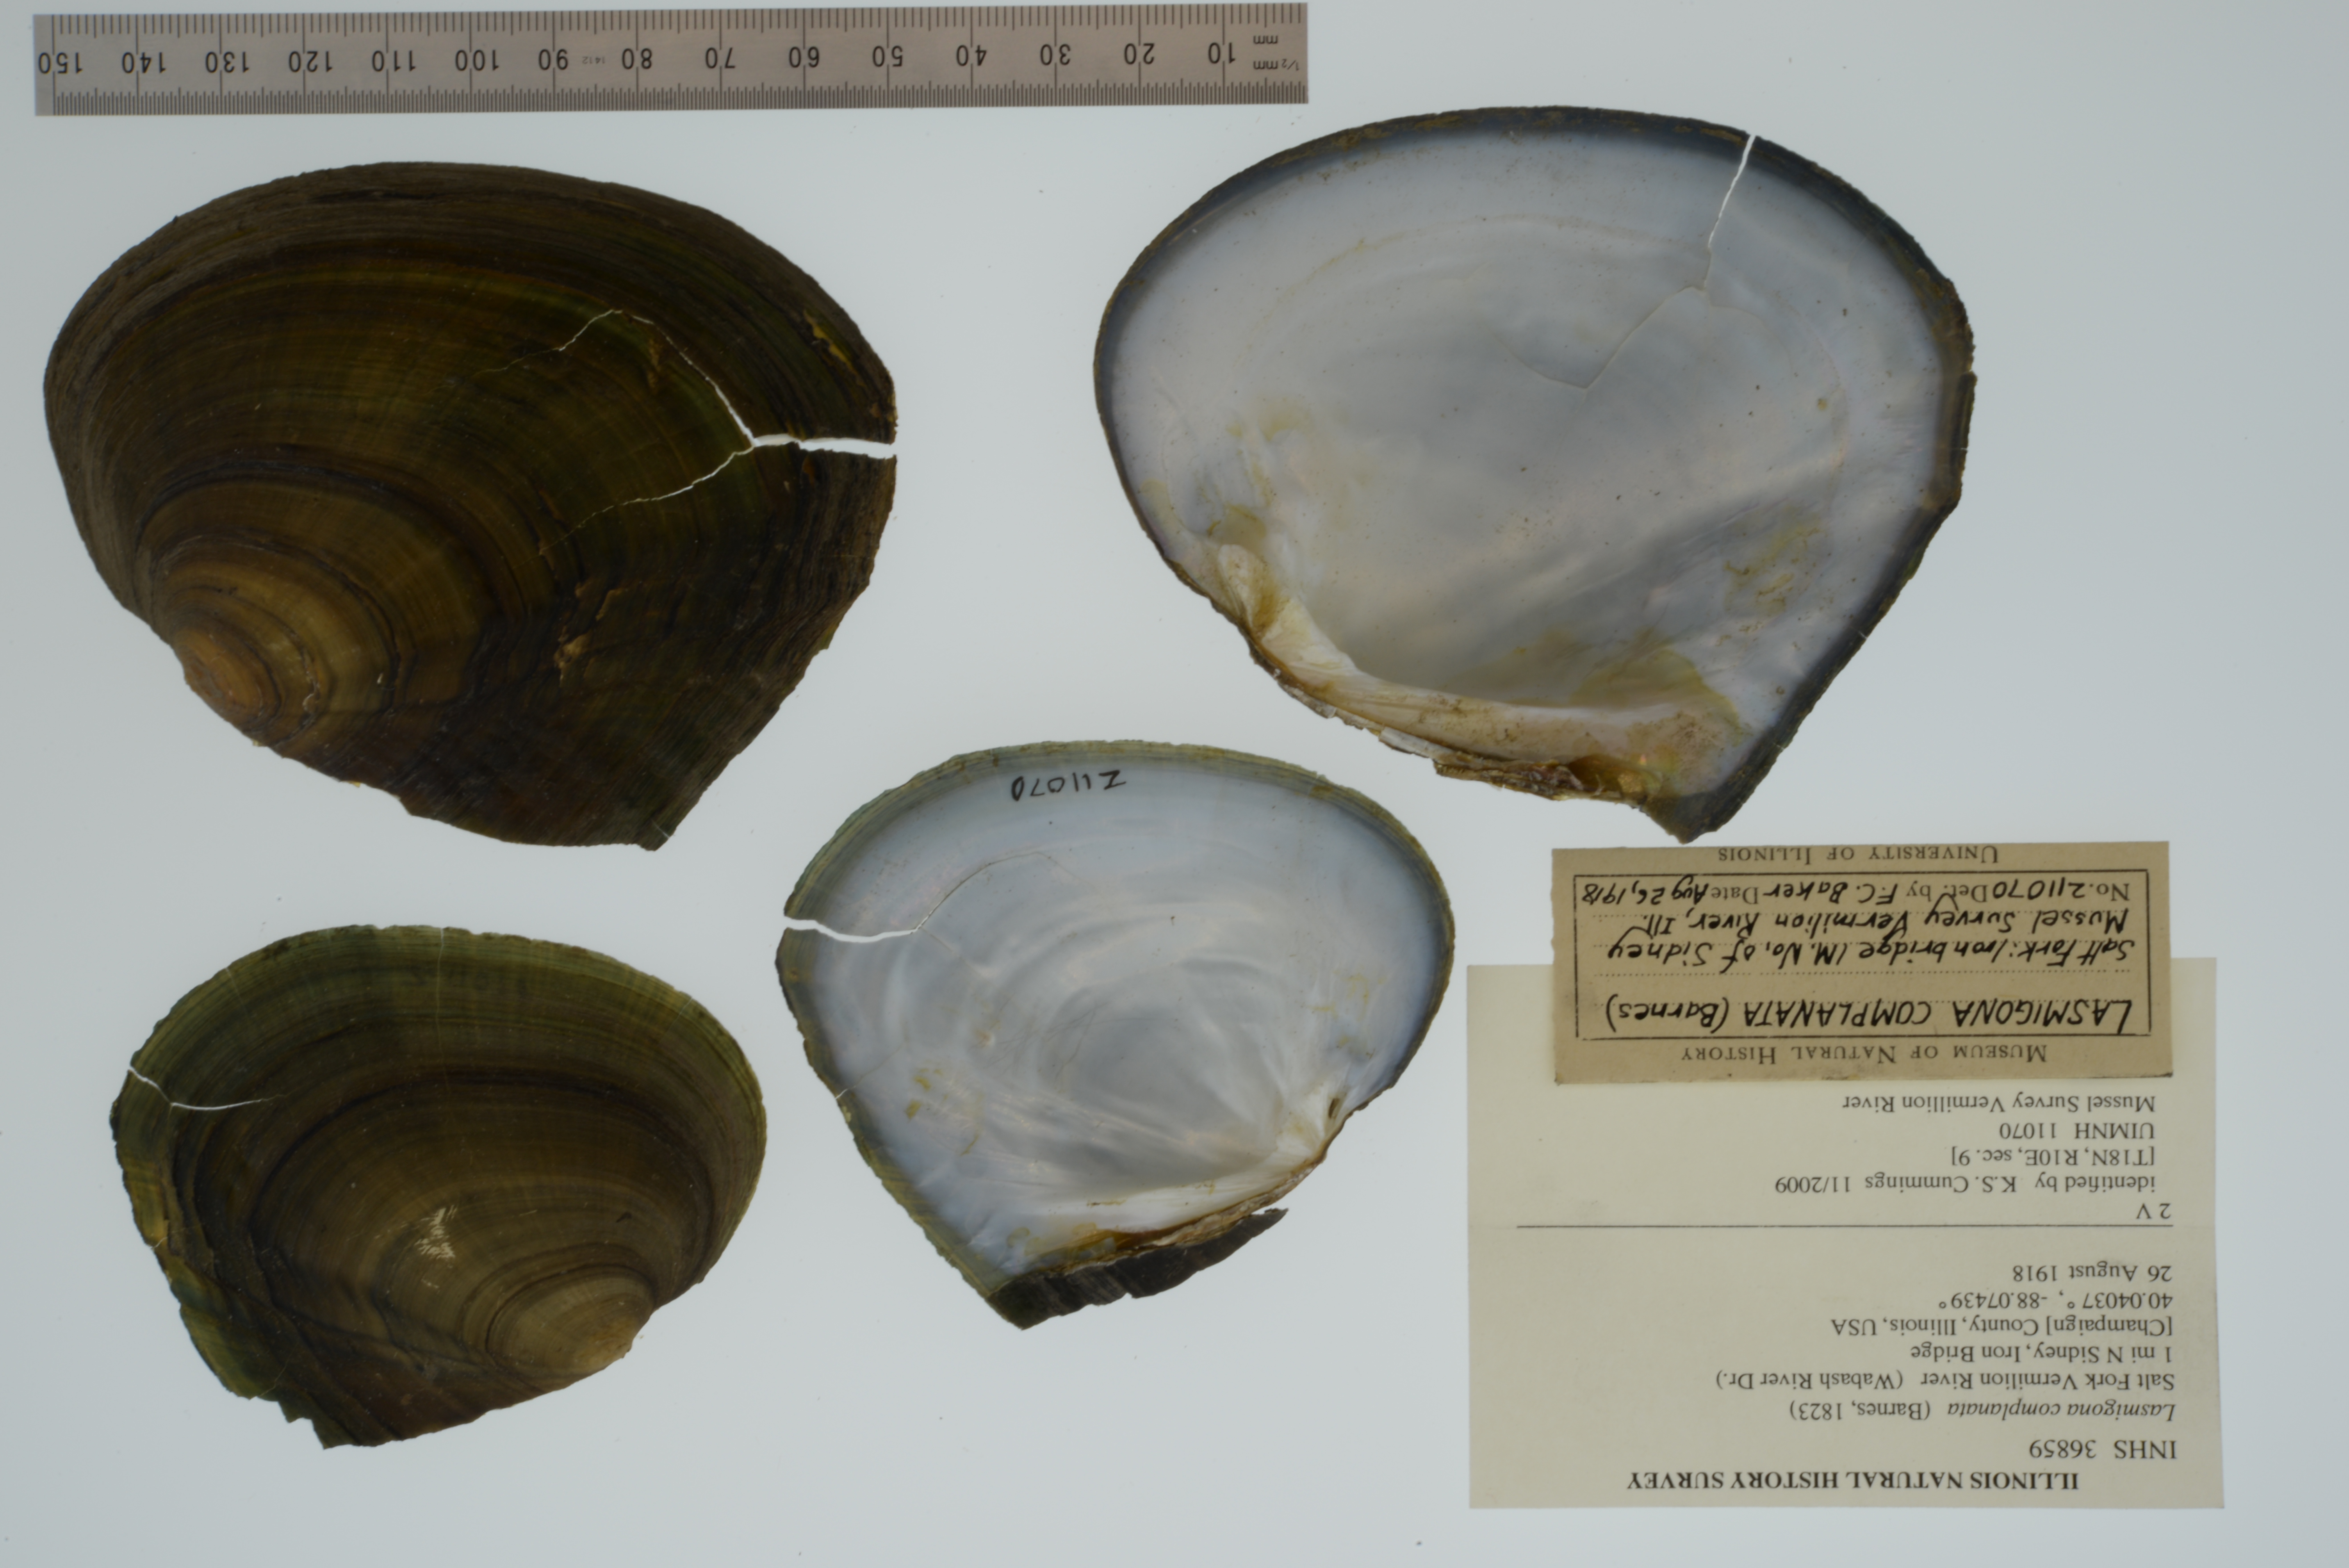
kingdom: Animalia
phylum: Mollusca
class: Bivalvia
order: Unionida
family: Unionidae
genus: Lasmigona
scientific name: Lasmigona complanata
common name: White heelsplitter
